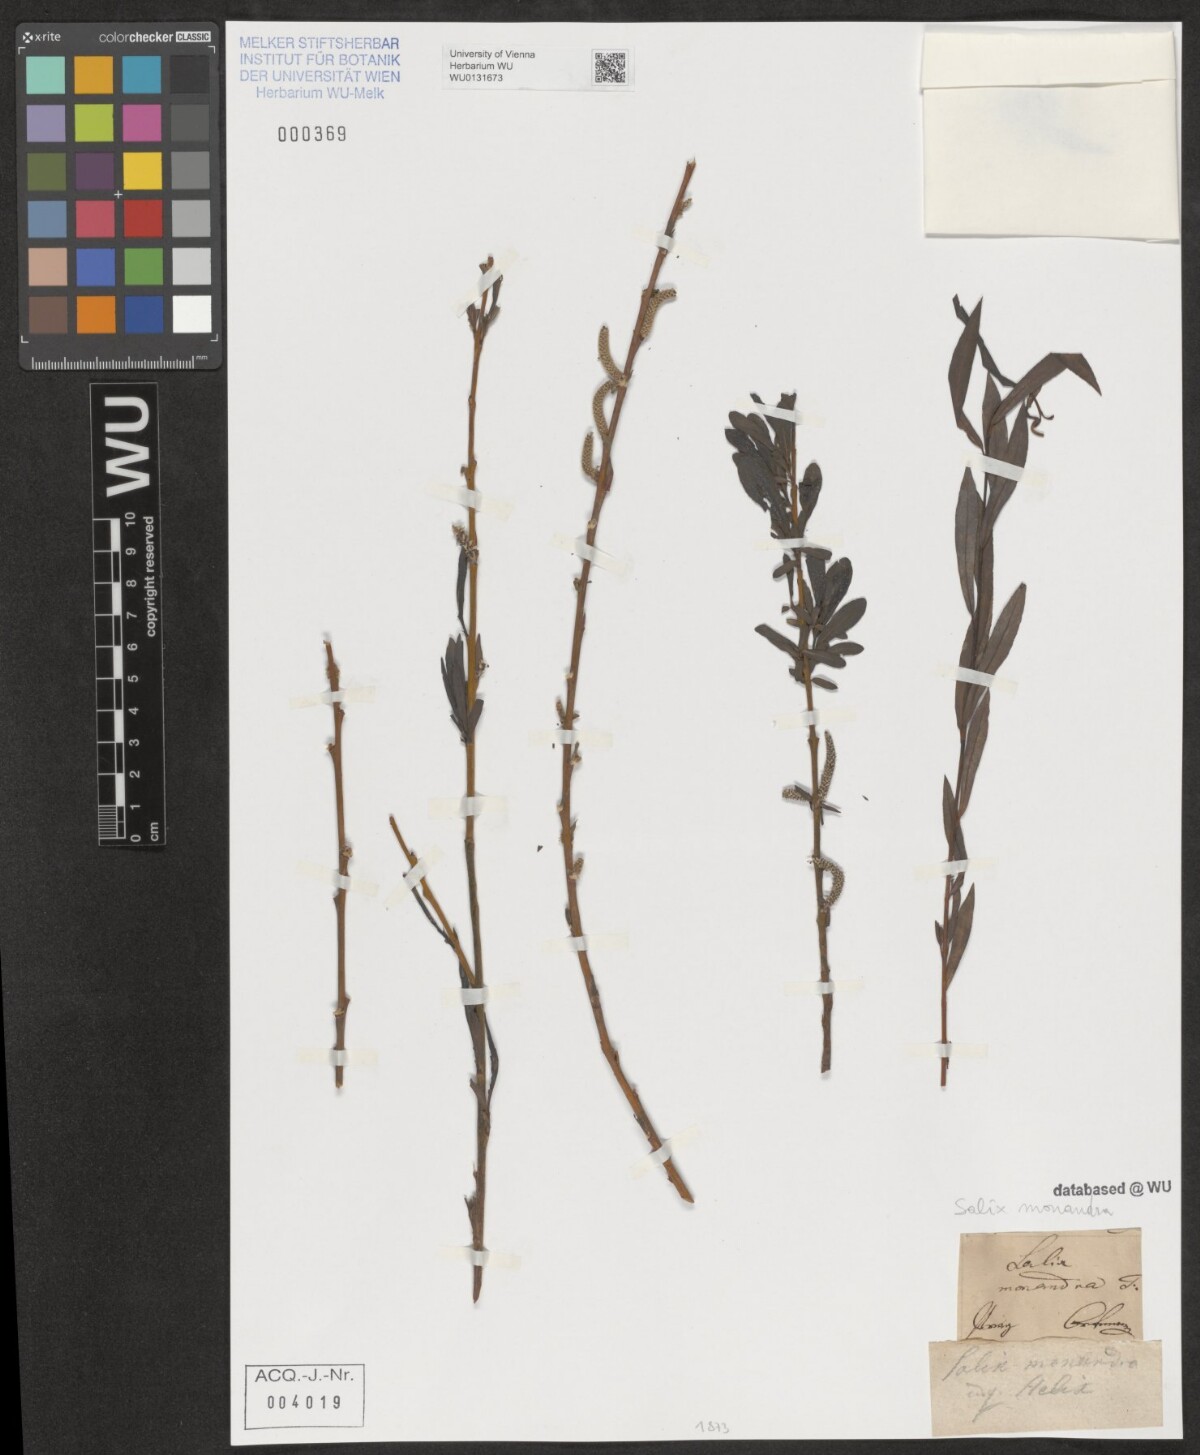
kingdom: Plantae
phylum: Tracheophyta
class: Magnoliopsida
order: Malpighiales
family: Salicaceae
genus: Salix
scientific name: Salix montana
